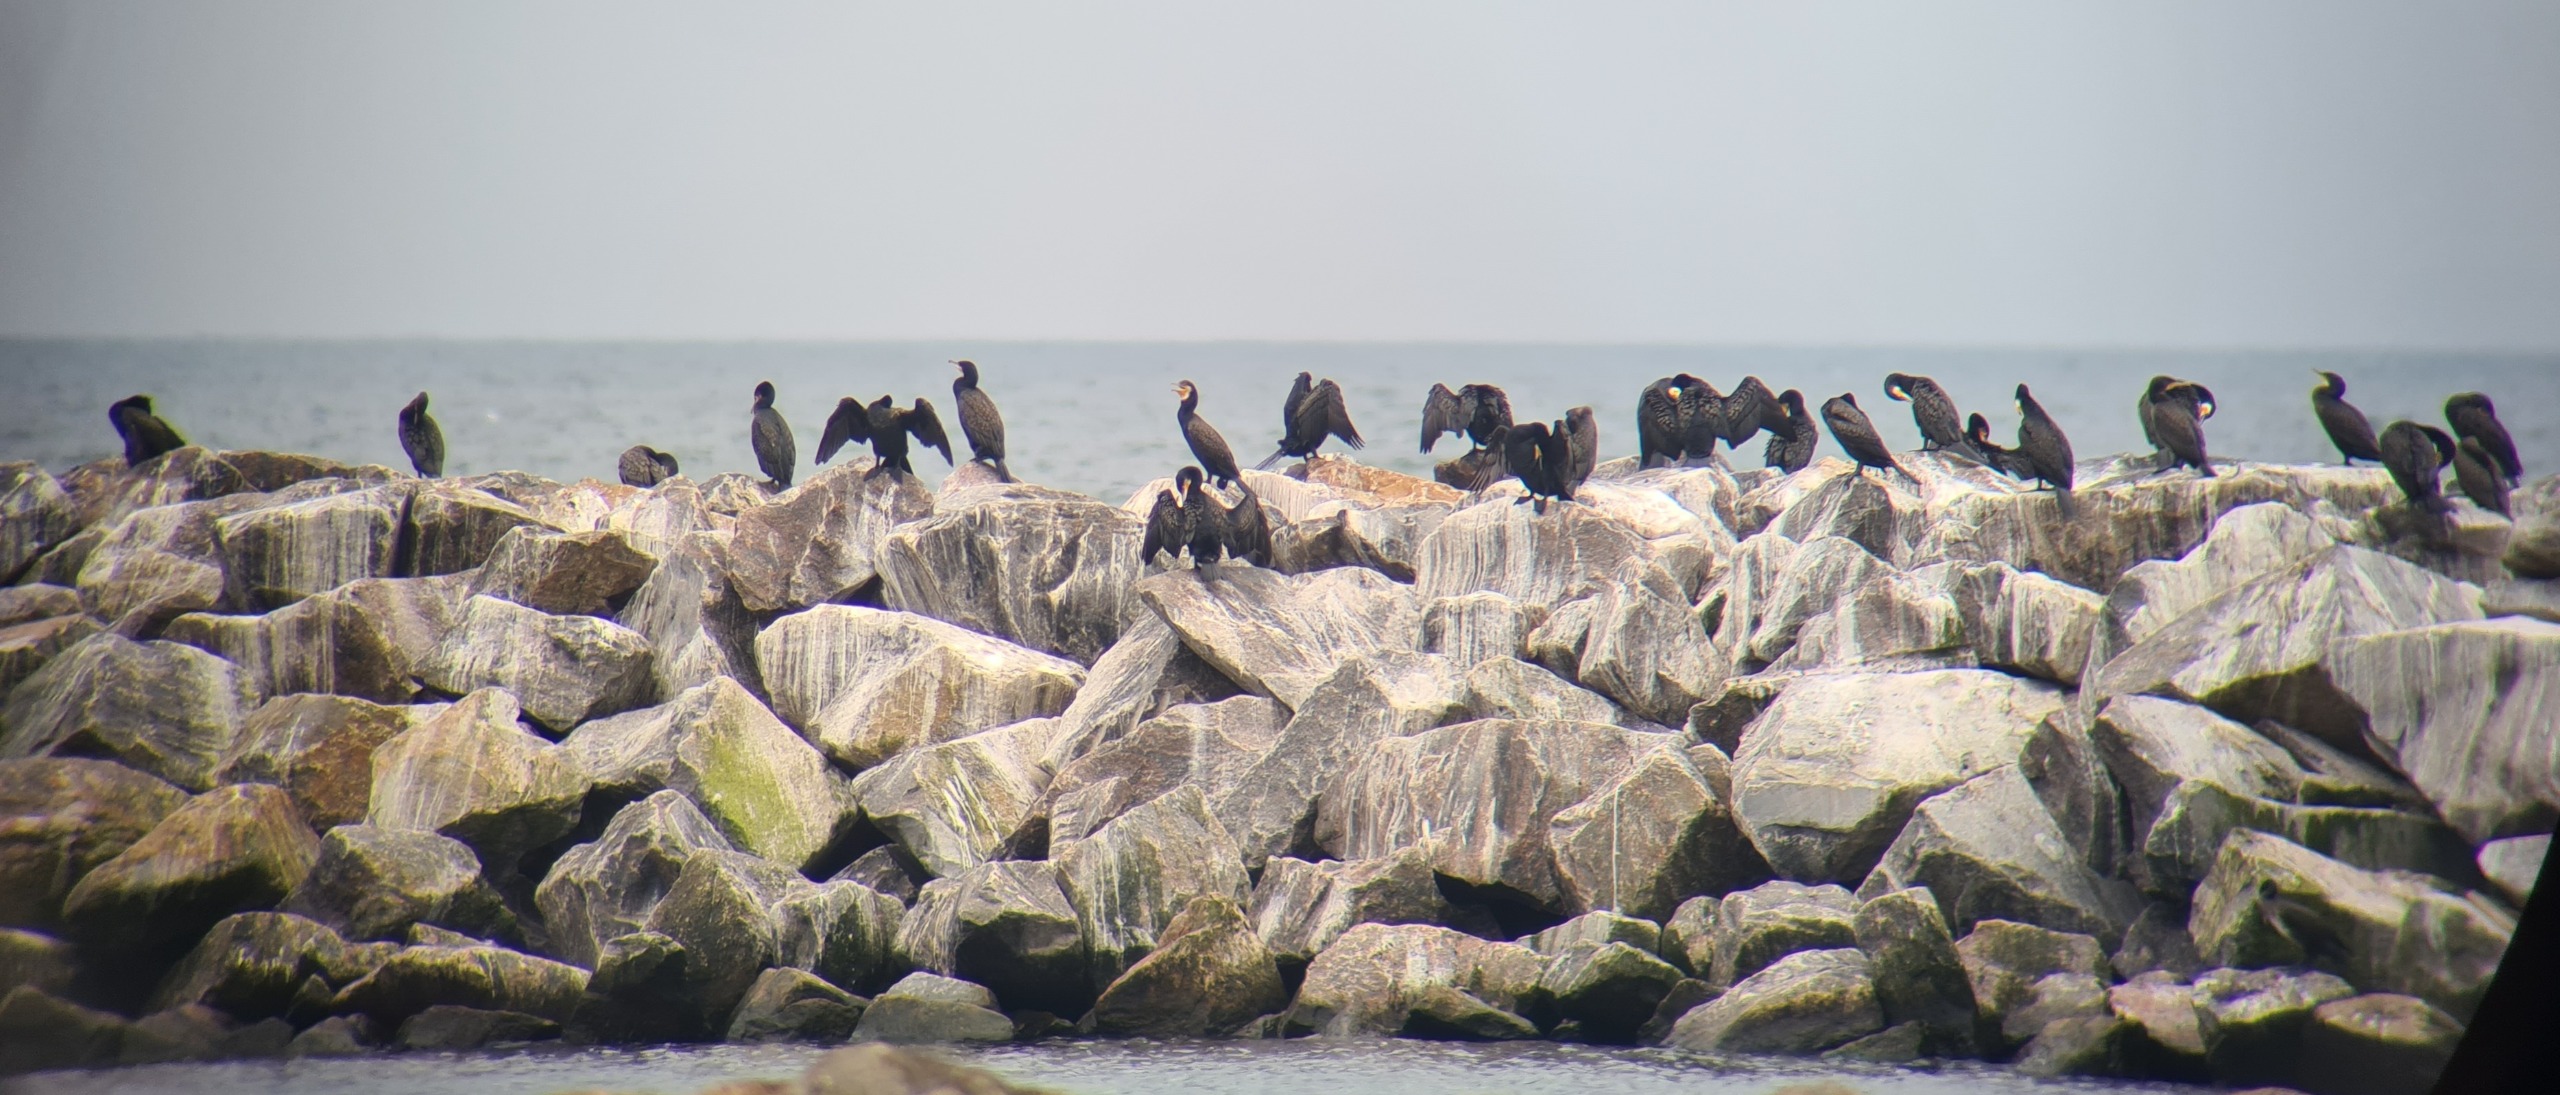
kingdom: Animalia
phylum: Chordata
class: Aves
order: Suliformes
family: Phalacrocoracidae
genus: Phalacrocorax
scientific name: Phalacrocorax carbo
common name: Skarv
